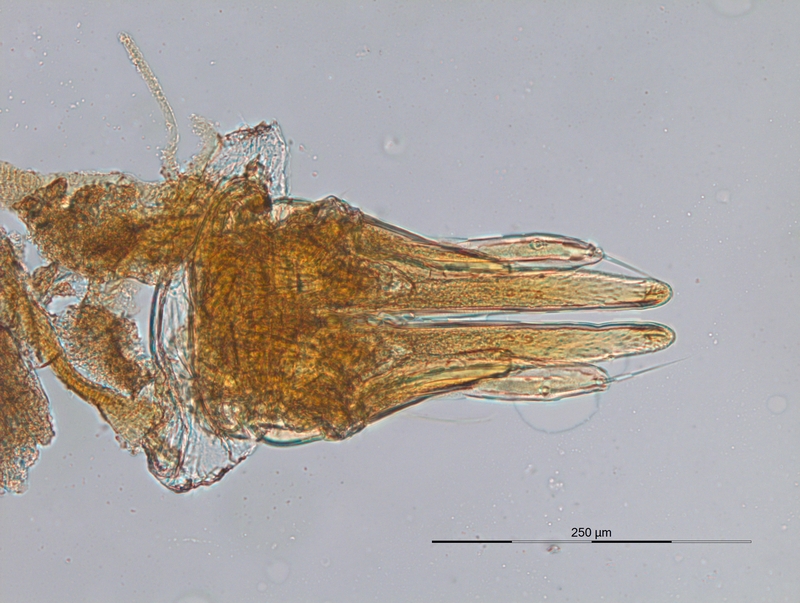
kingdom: Animalia
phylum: Arthropoda
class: Diplopoda
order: Julida
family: Nemasomatidae
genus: Thalassisobates
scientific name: Thalassisobates littoralis
